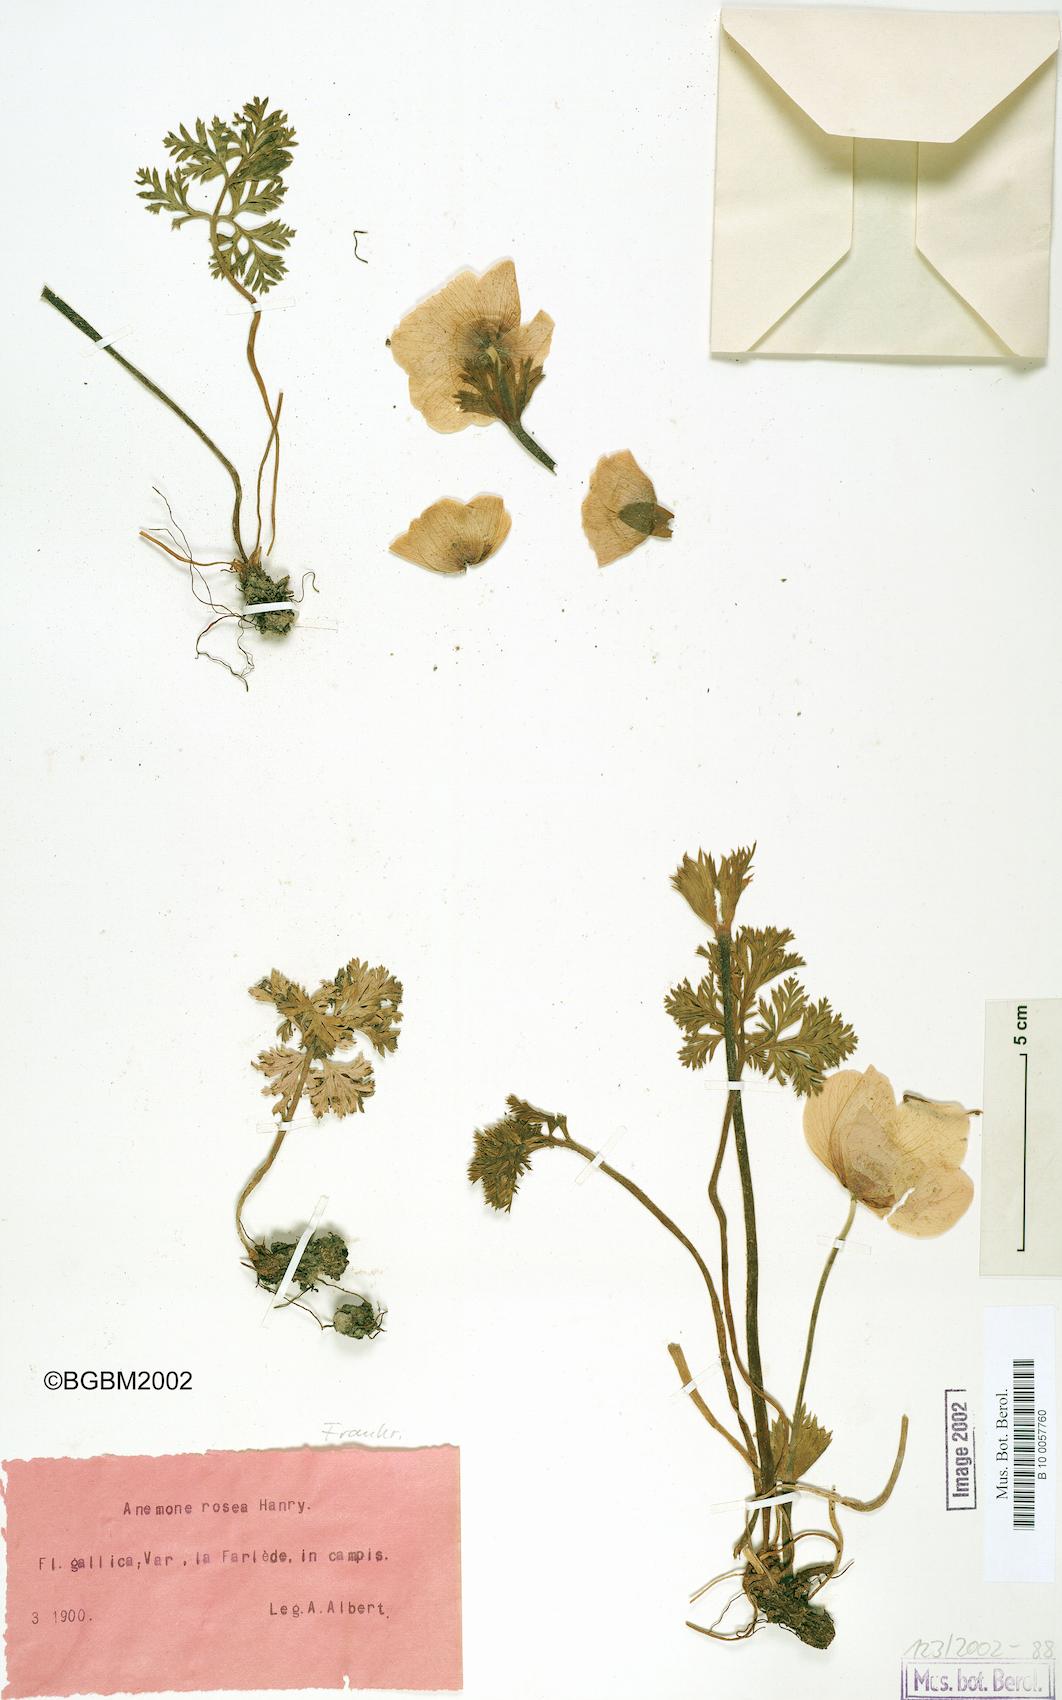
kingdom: Plantae
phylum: Tracheophyta
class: Magnoliopsida
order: Ranunculales
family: Ranunculaceae
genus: Anemone
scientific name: Anemone rosea
